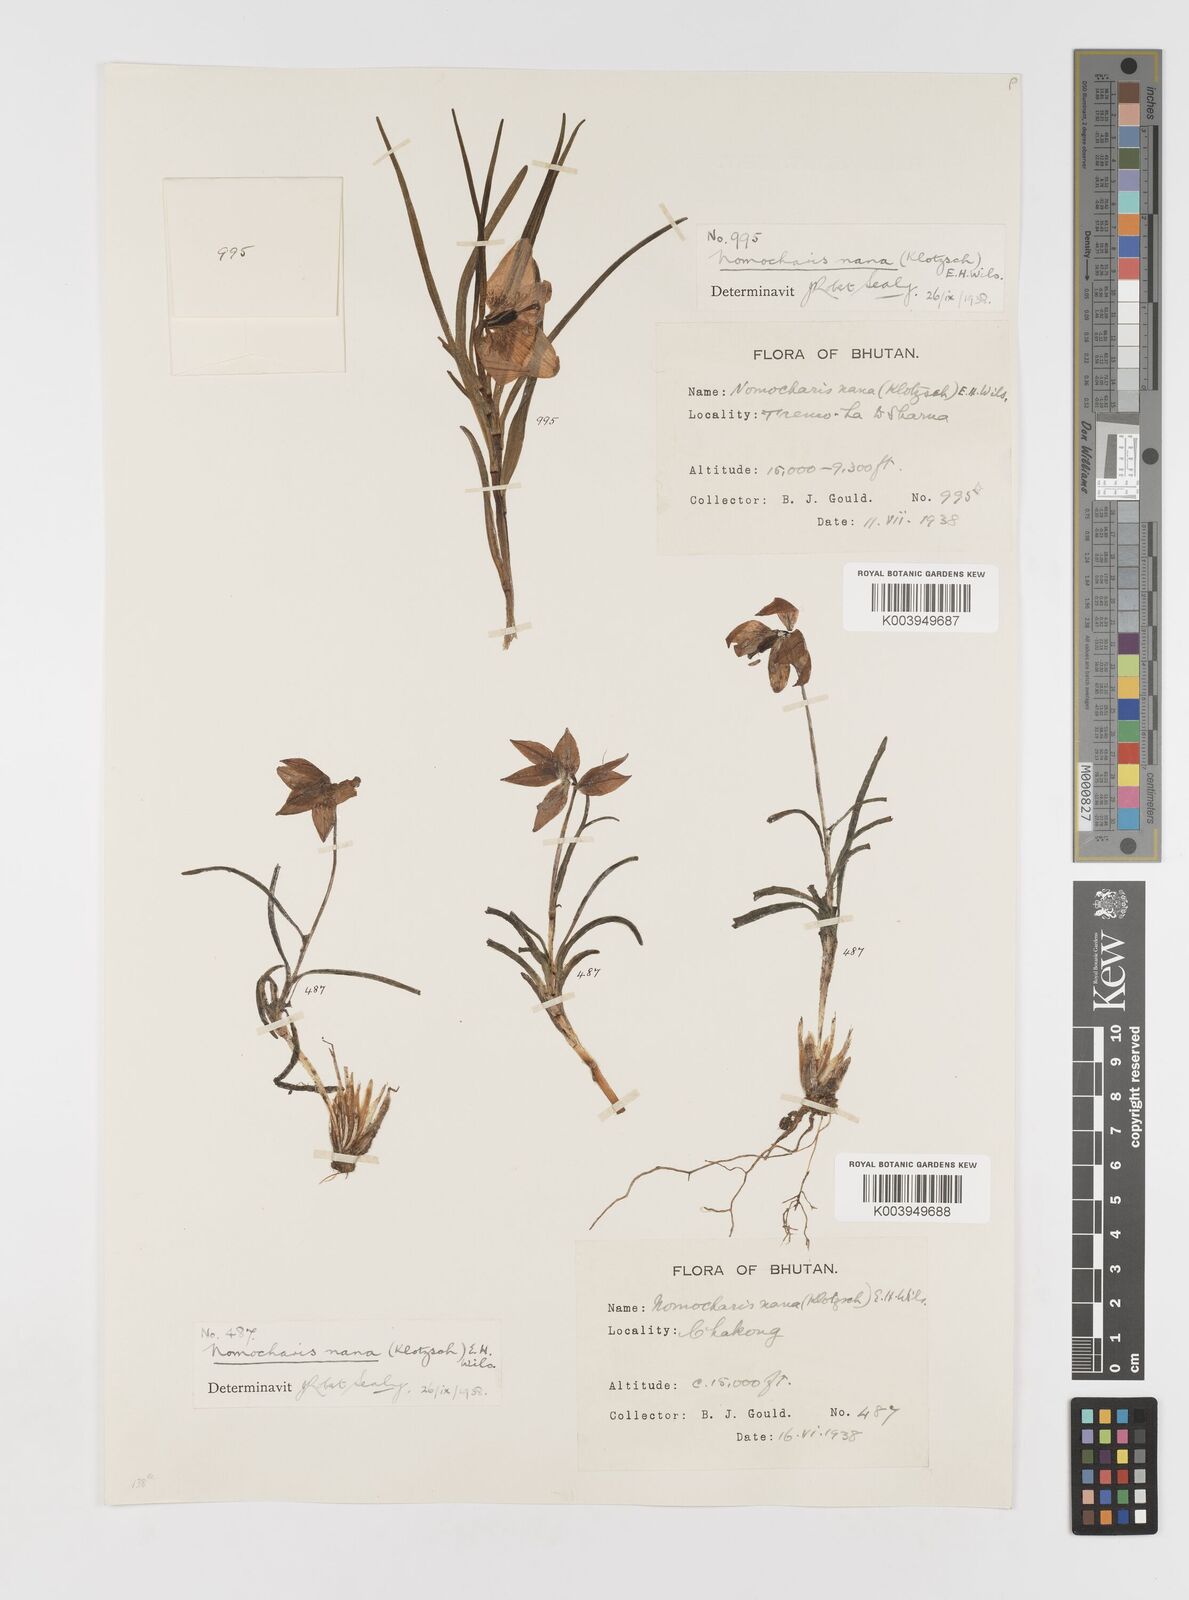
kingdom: Plantae
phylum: Tracheophyta
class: Liliopsida
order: Liliales
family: Liliaceae
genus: Lilium
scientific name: Lilium nanum
